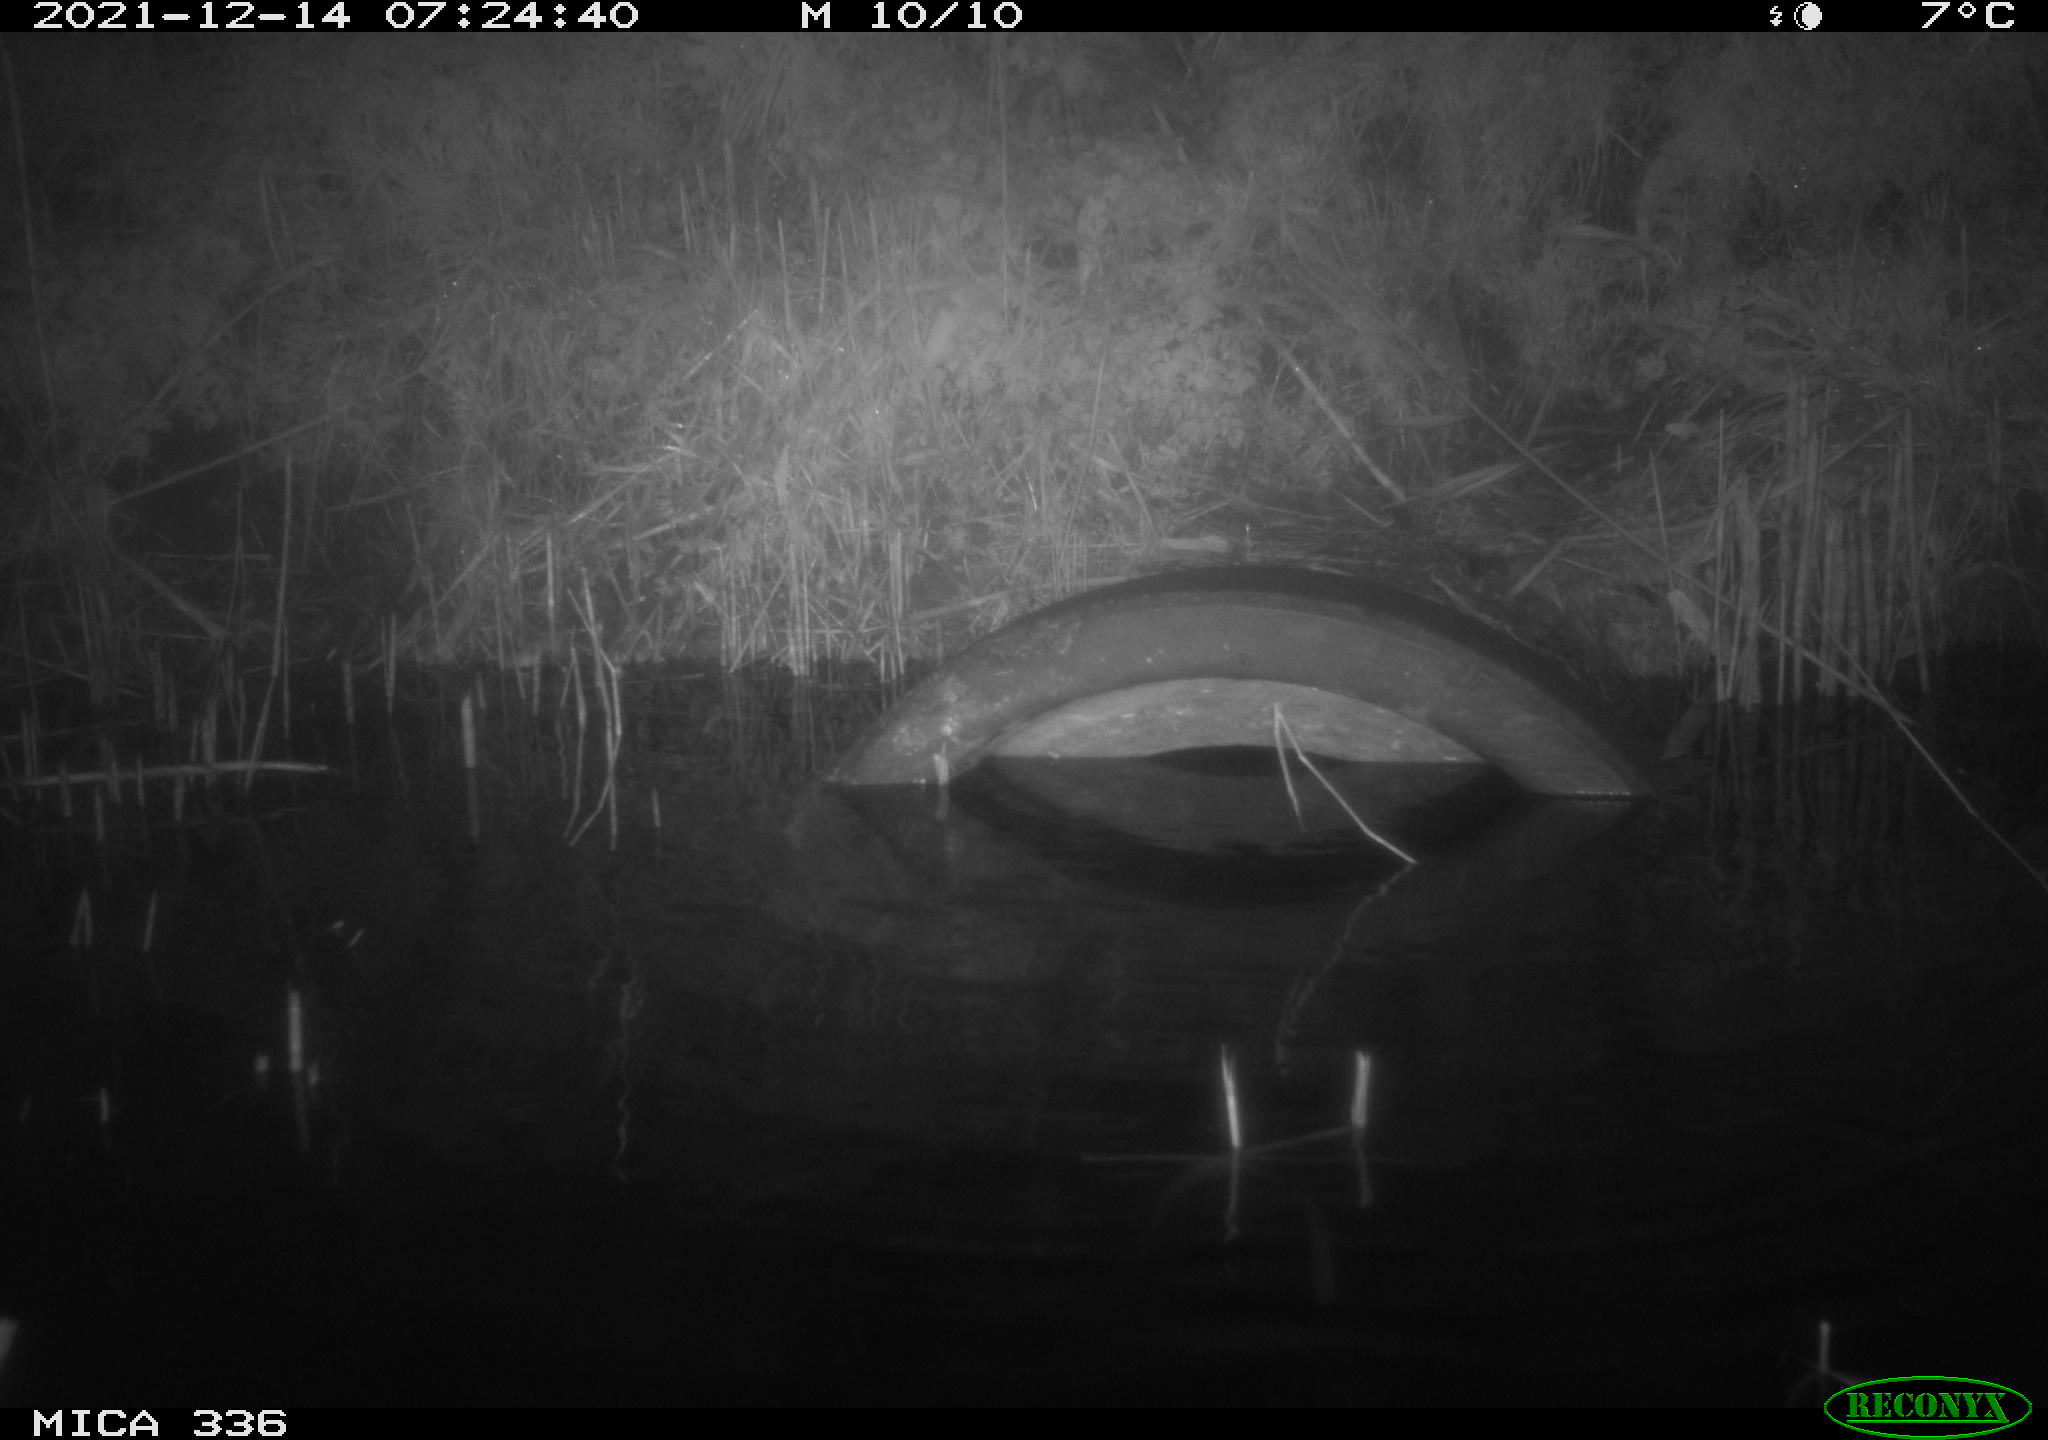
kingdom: Animalia
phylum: Chordata
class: Mammalia
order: Rodentia
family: Muridae
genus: Rattus
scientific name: Rattus norvegicus
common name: Brown rat
